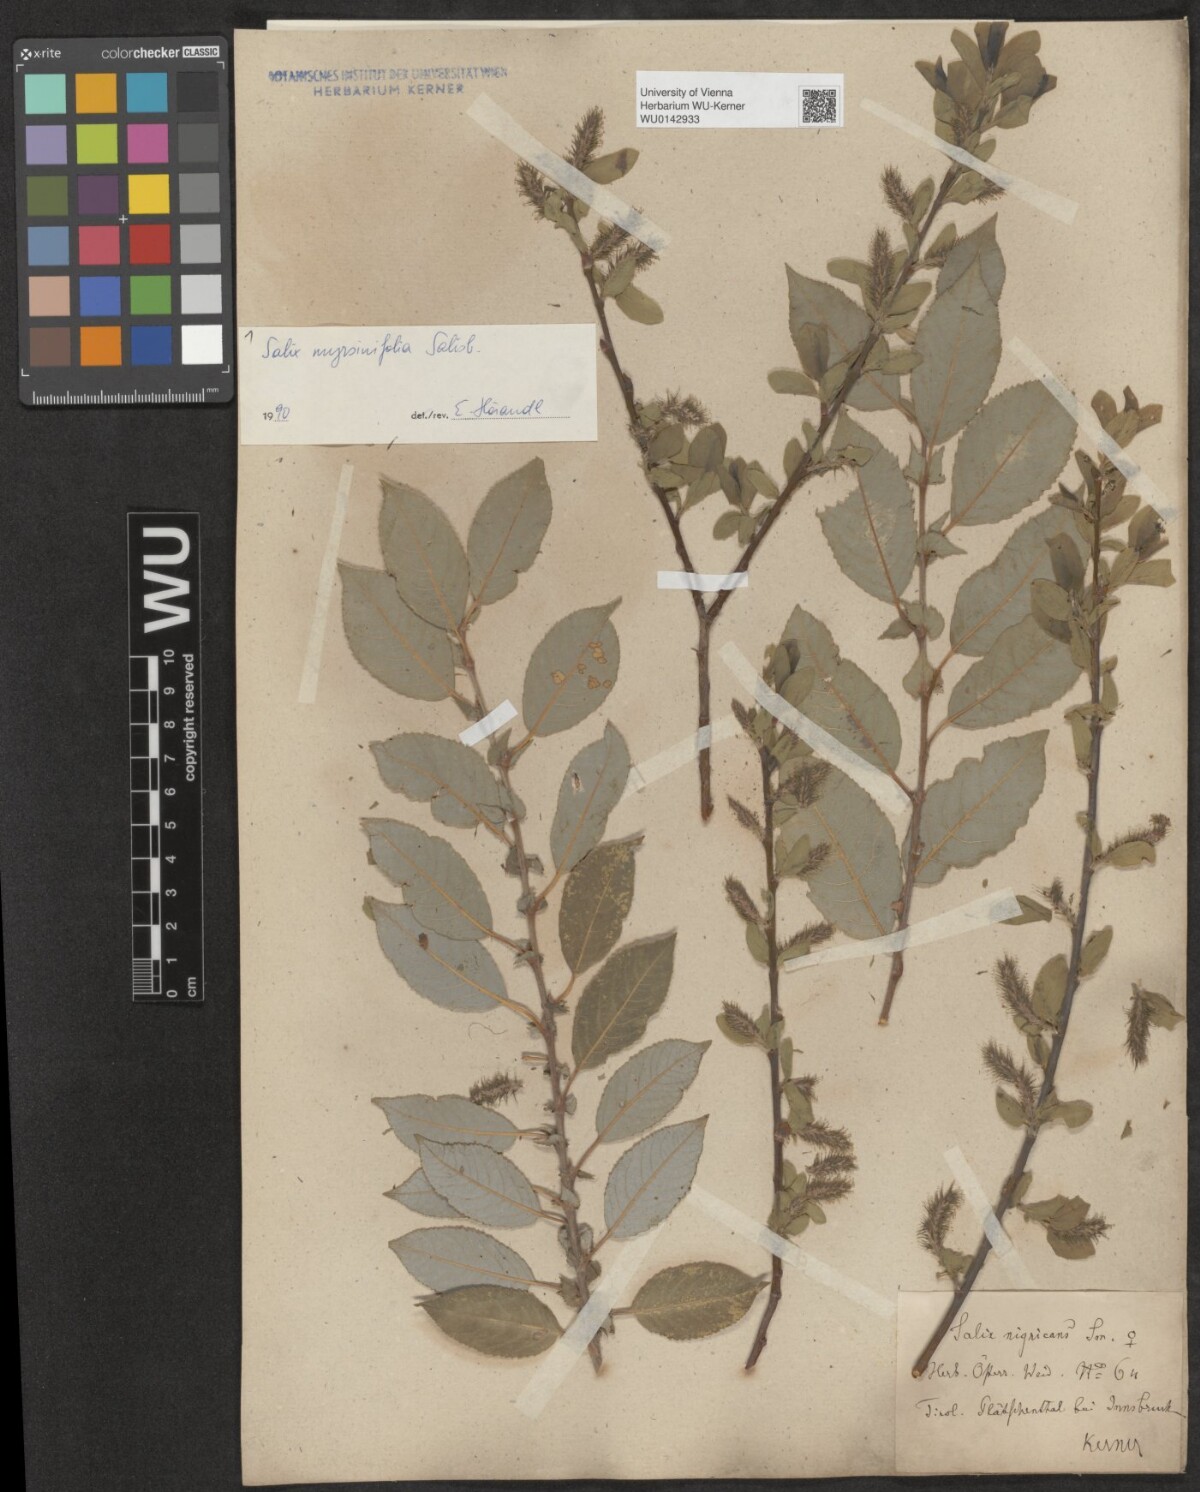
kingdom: Plantae
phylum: Tracheophyta
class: Magnoliopsida
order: Malpighiales
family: Salicaceae
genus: Salix
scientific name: Salix myrsinifolia
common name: Dark-leaved willow
